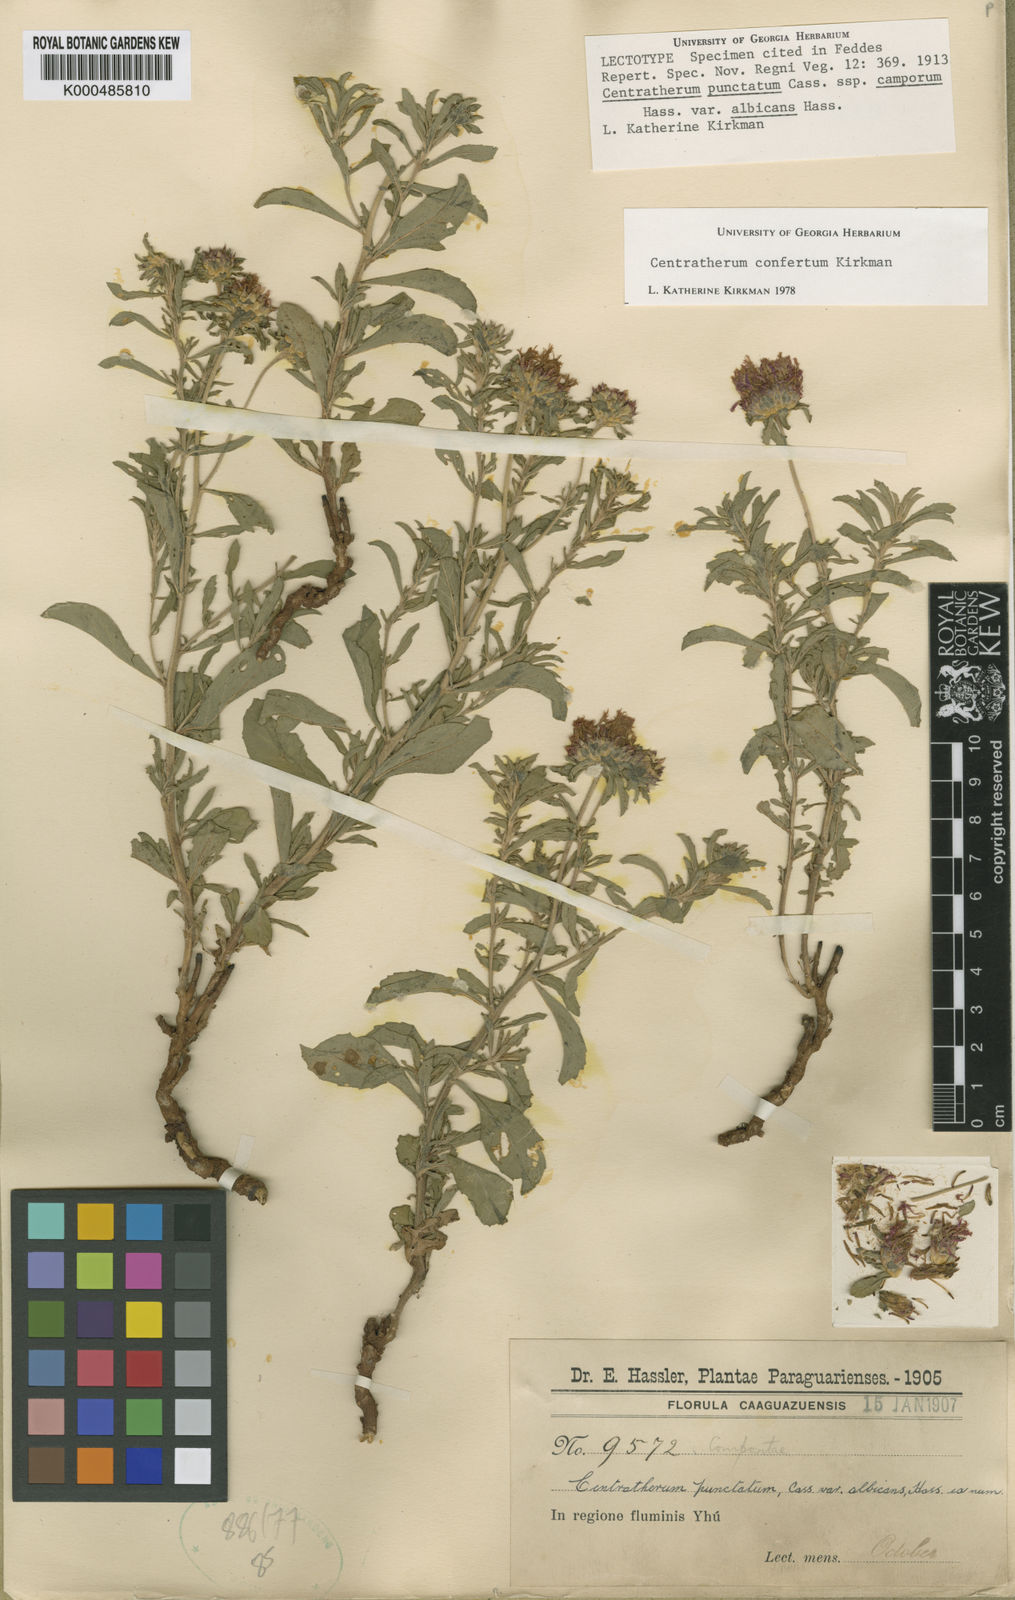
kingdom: Plantae
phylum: Tracheophyta
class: Magnoliopsida
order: Asterales
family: Asteraceae
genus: Centratherum
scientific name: Centratherum confertum
